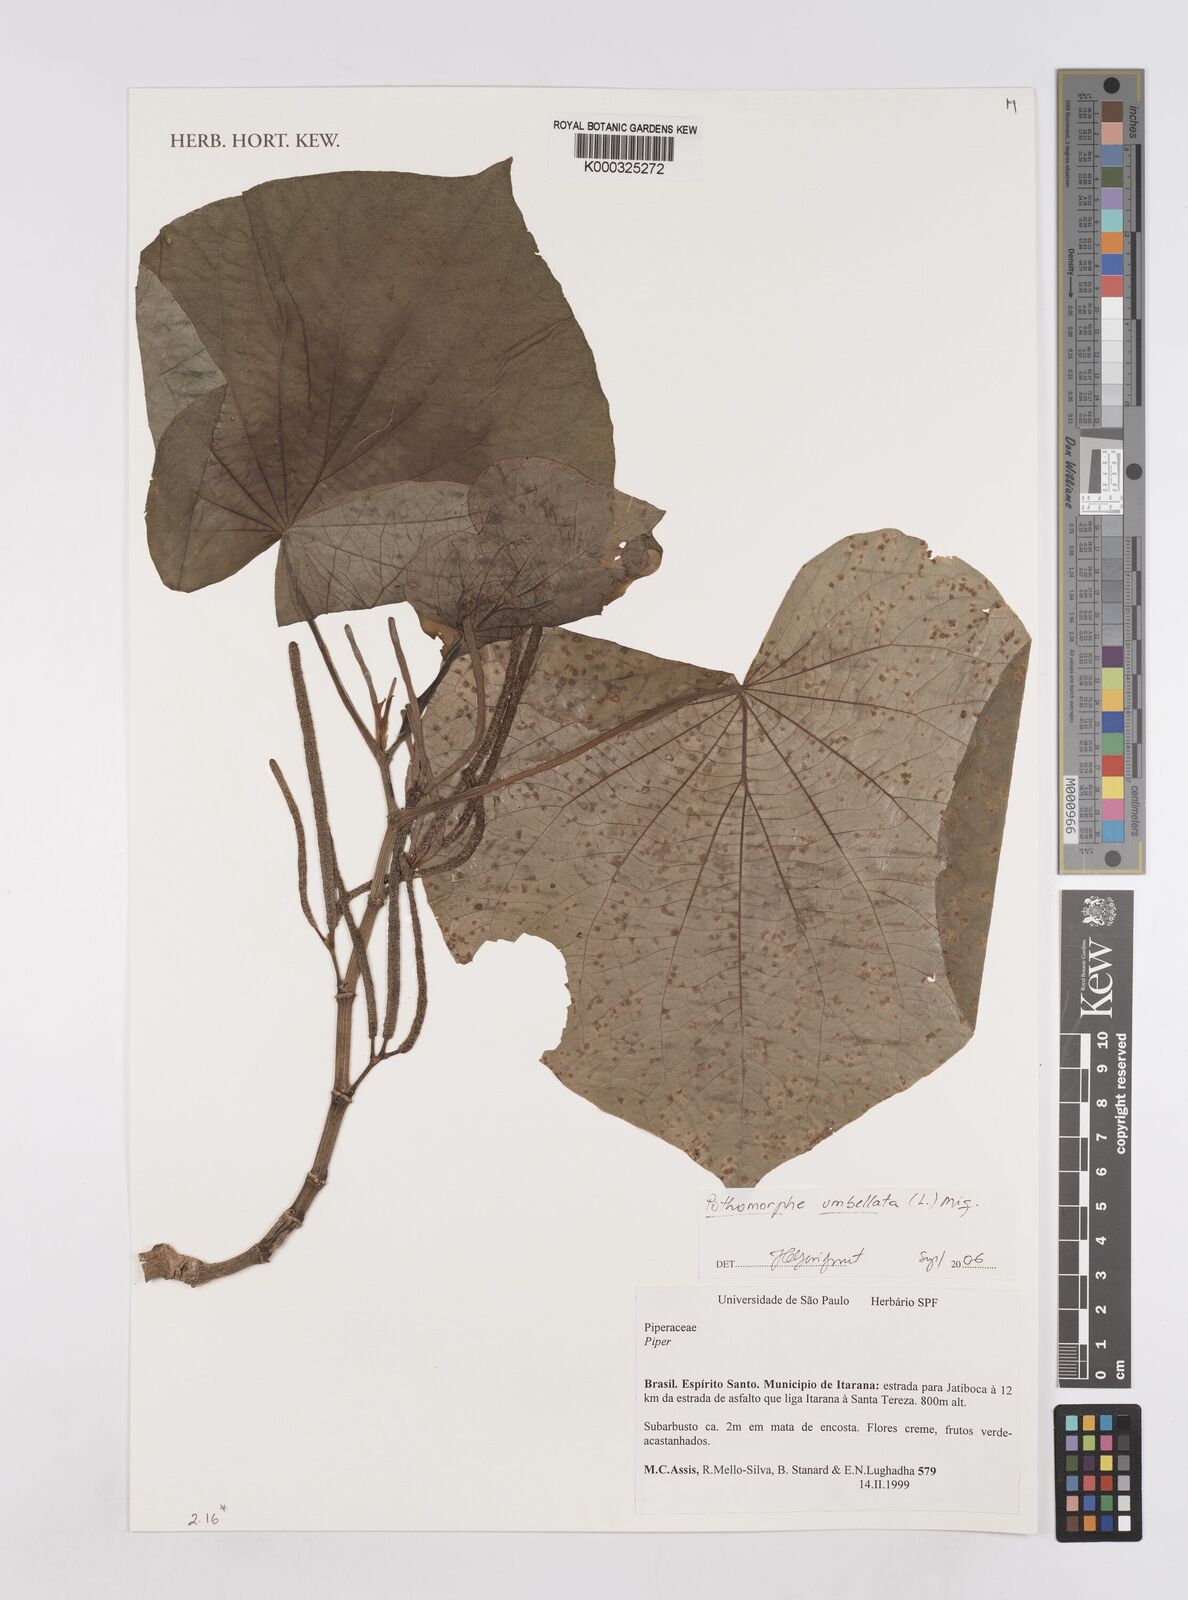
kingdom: Plantae
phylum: Tracheophyta
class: Magnoliopsida
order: Piperales
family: Piperaceae
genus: Piper
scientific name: Piper umbellatum
